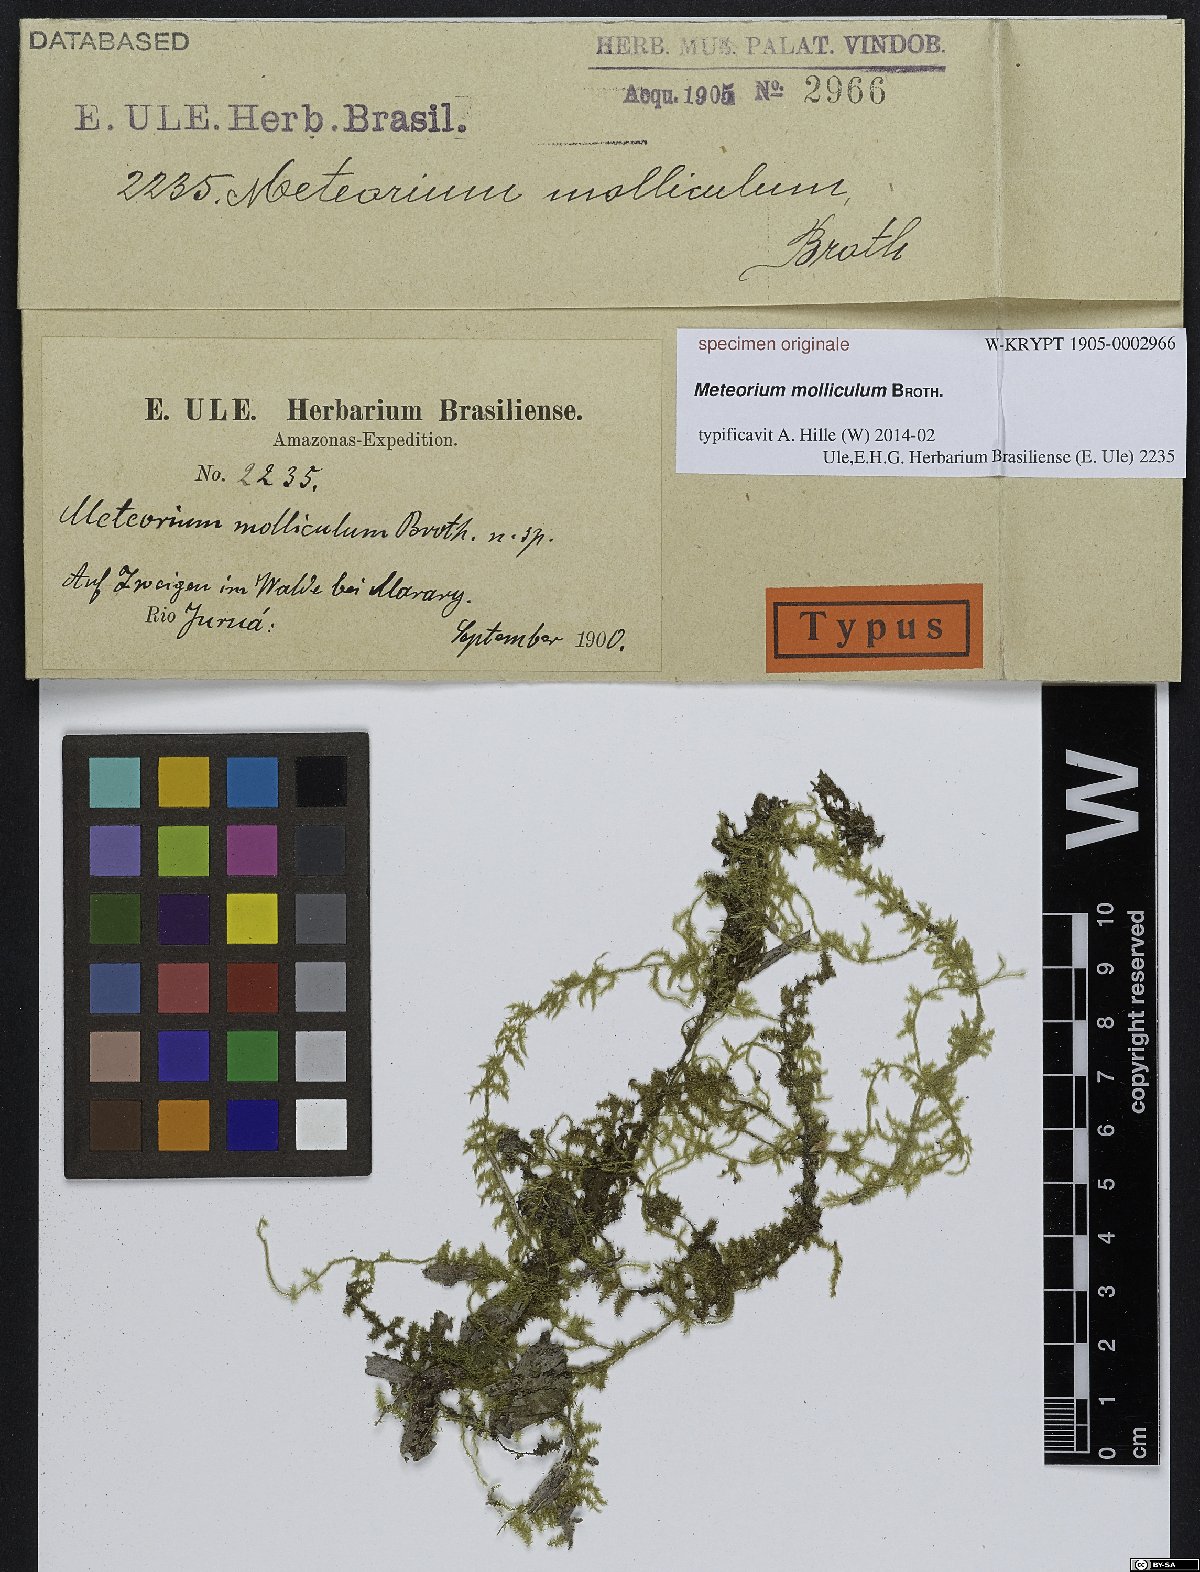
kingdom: Plantae
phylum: Bryophyta
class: Bryopsida
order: Hypnales
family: Meteoriaceae
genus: Meteorium
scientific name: Meteorium
